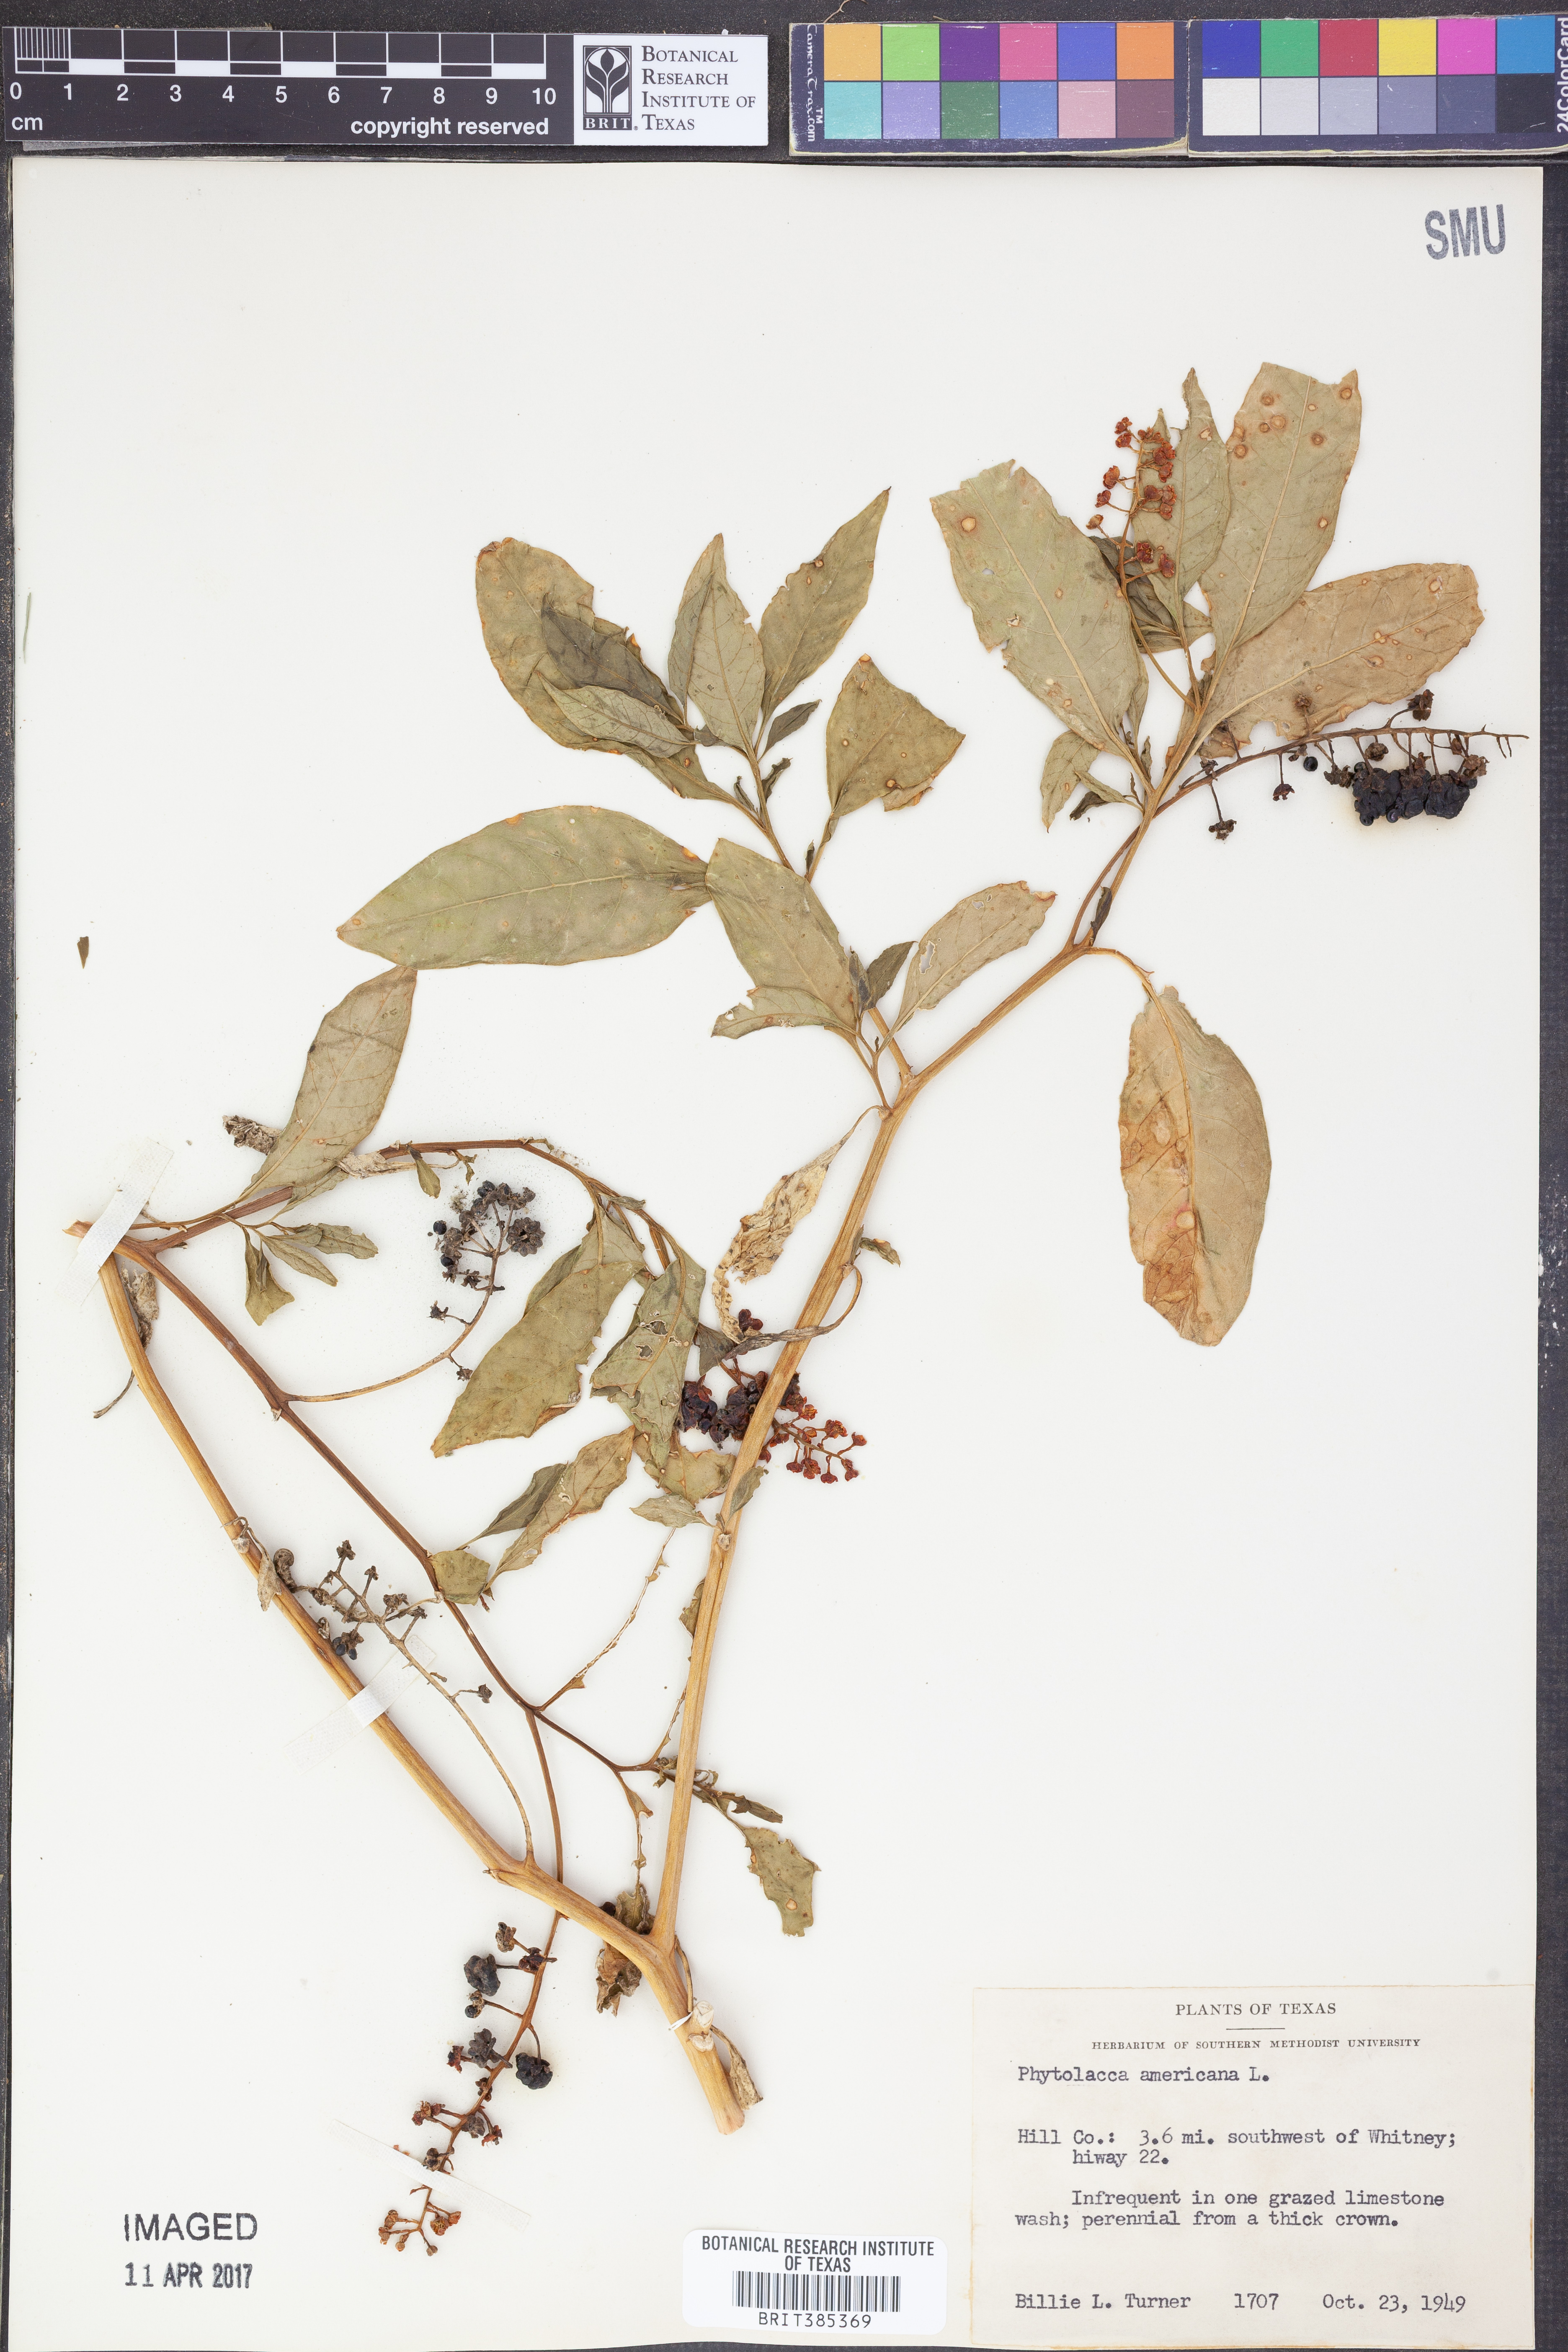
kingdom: Plantae
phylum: Tracheophyta
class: Magnoliopsida
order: Caryophyllales
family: Phytolaccaceae
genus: Phytolacca
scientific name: Phytolacca americana
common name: American pokeweed
